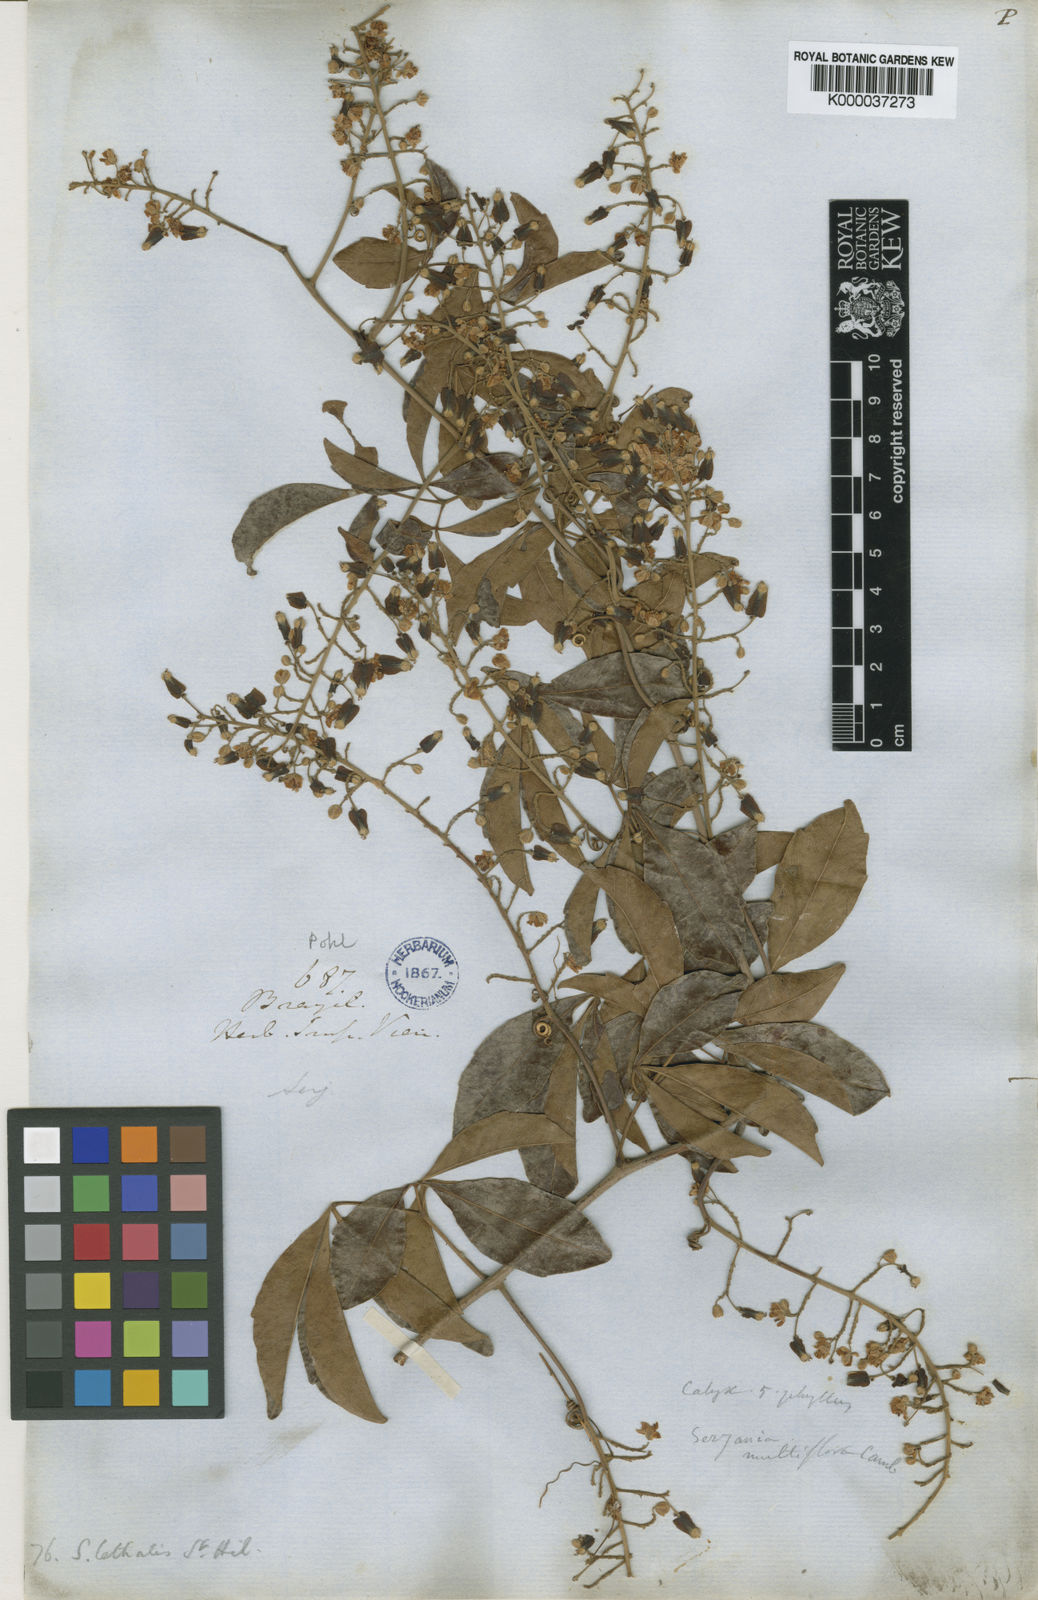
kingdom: Plantae
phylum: Tracheophyta
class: Magnoliopsida
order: Sapindales
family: Sapindaceae
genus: Serjania
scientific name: Serjania lethalis
